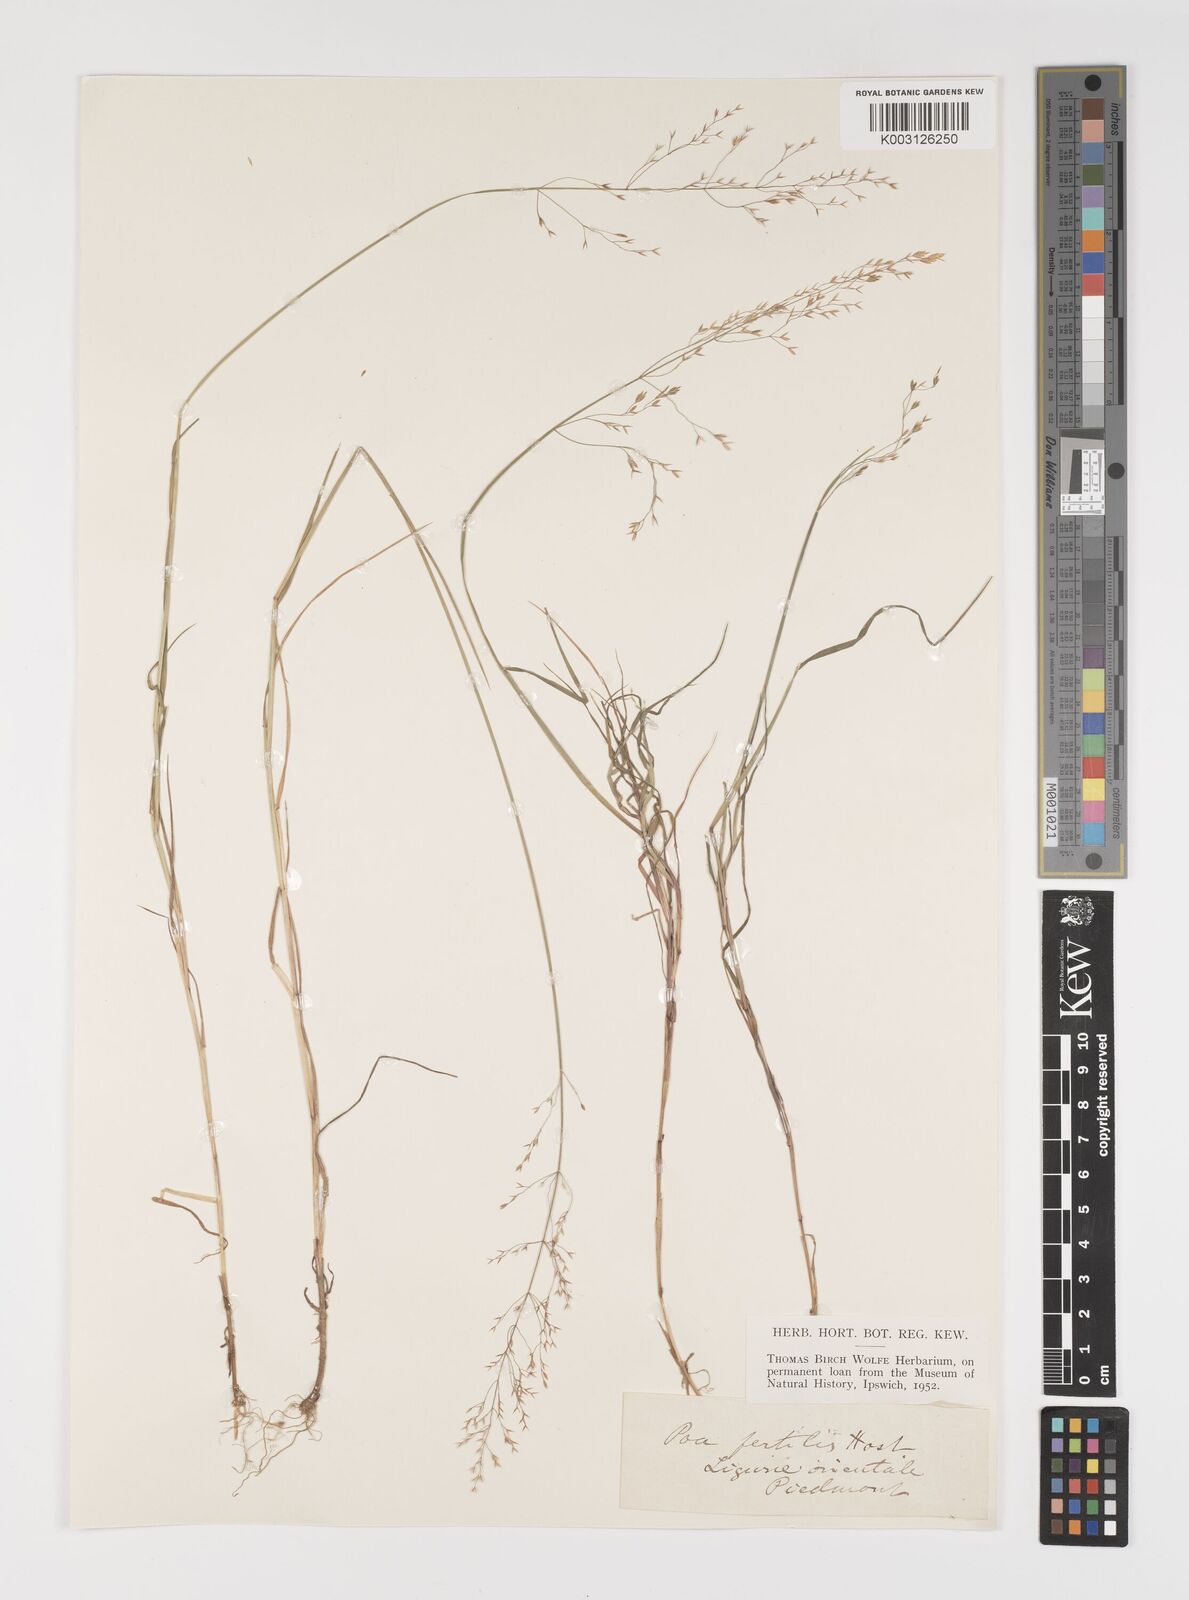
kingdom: Plantae
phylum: Tracheophyta
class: Liliopsida
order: Poales
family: Poaceae
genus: Poa
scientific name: Poa palustris
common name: Swamp meadow-grass
